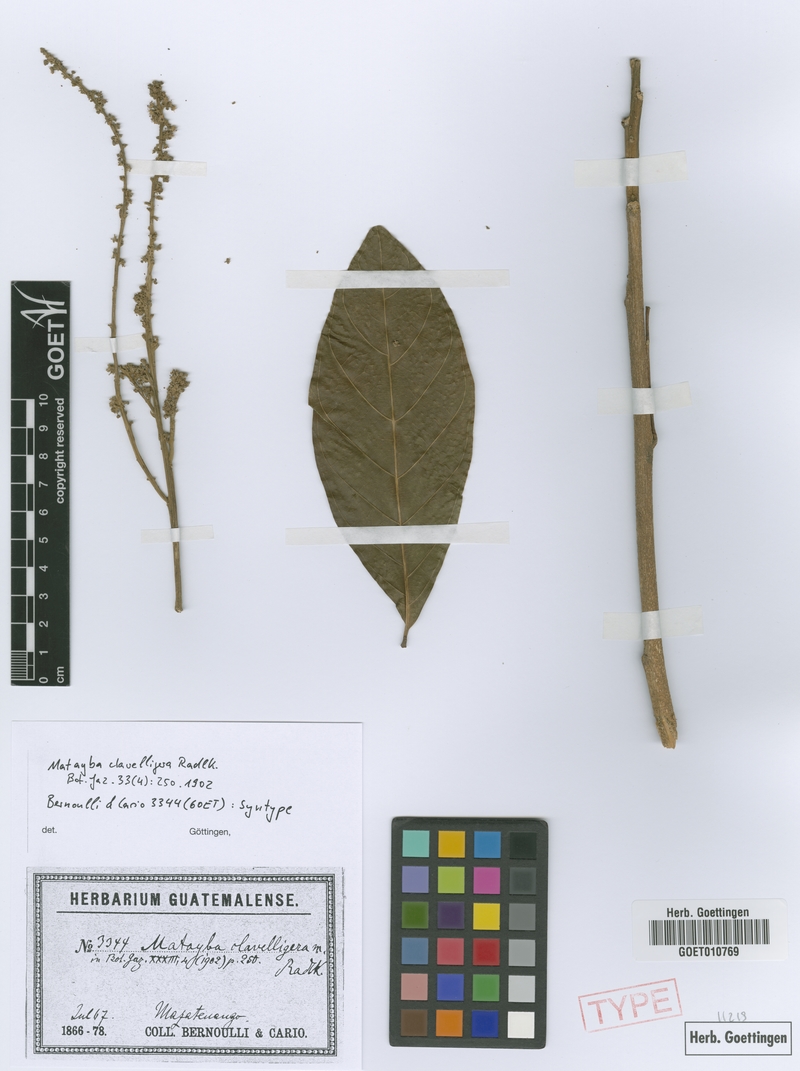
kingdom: Plantae
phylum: Tracheophyta
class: Magnoliopsida
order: Sapindales
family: Sapindaceae
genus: Matayba
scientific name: Matayba clavelligera
